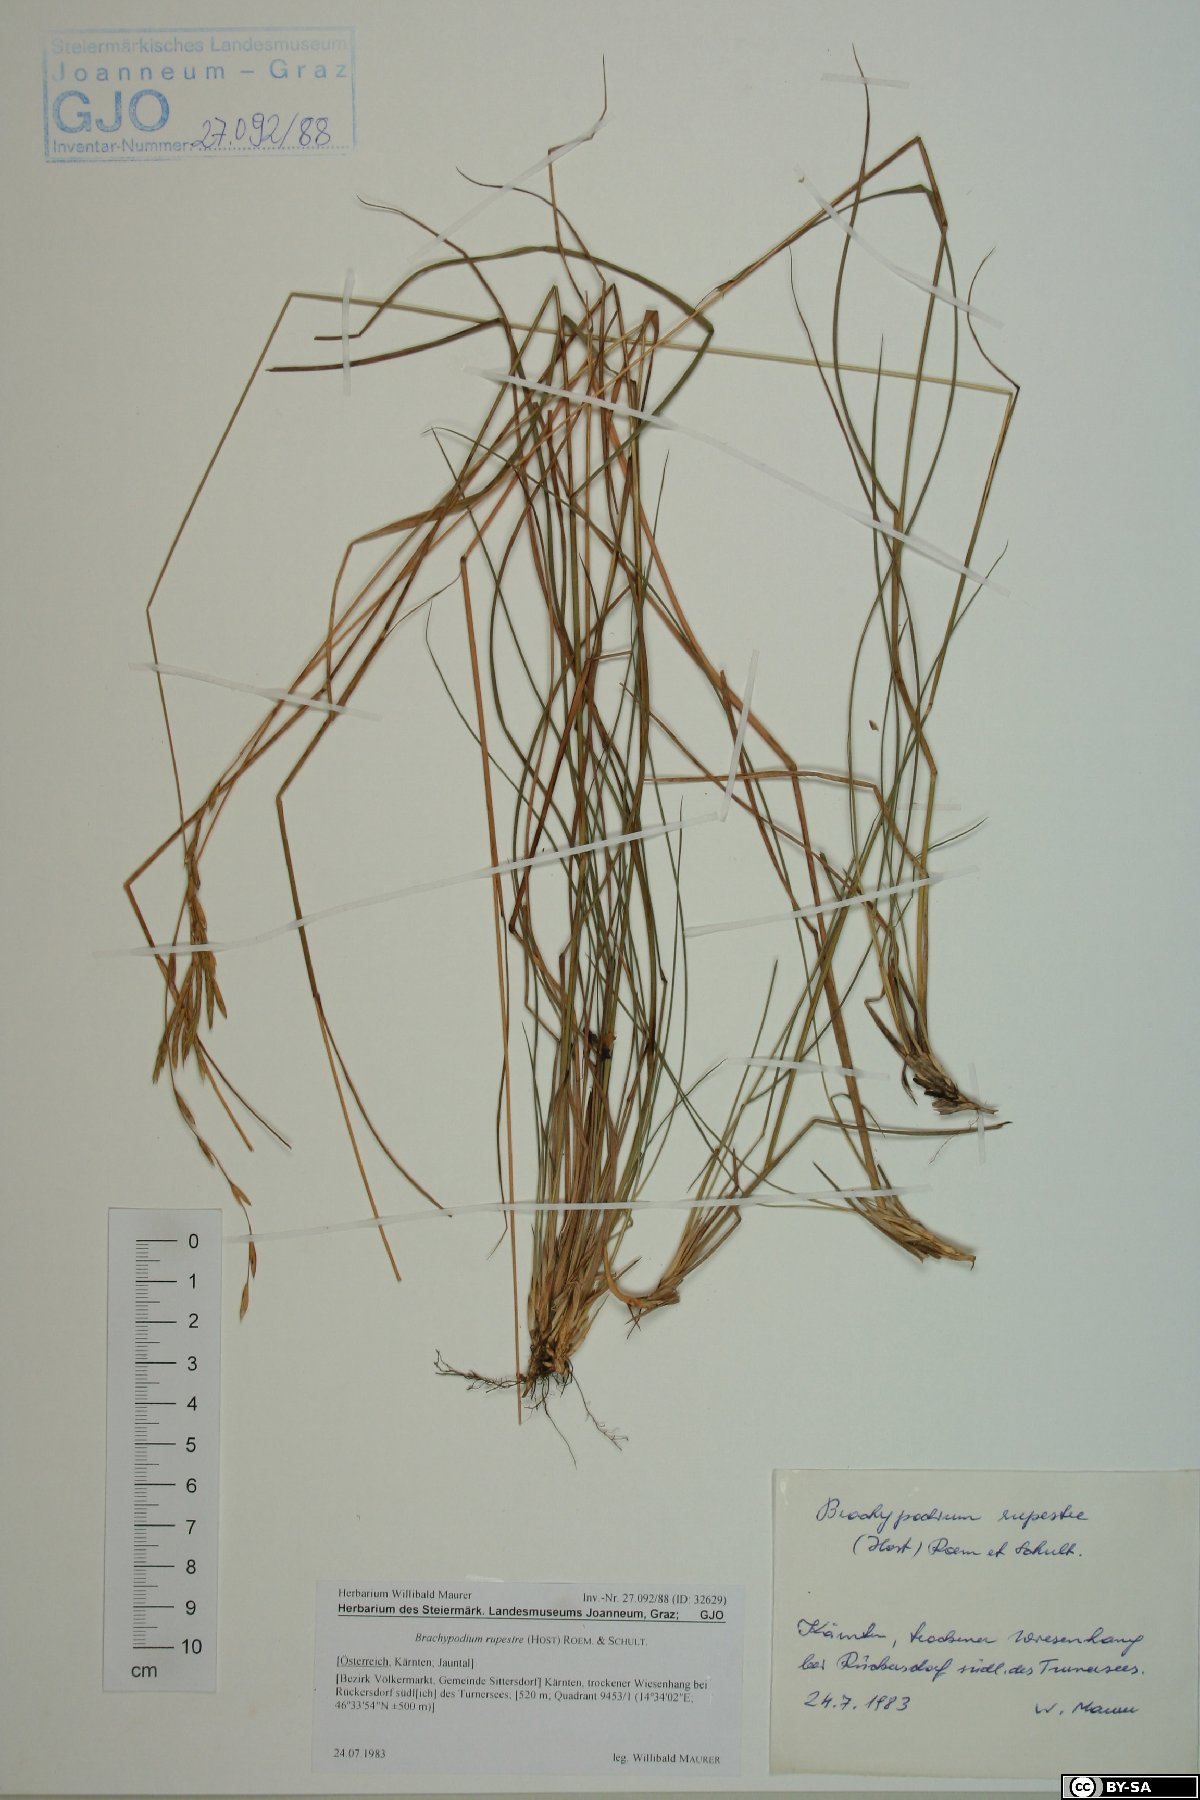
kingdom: Plantae
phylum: Tracheophyta
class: Liliopsida
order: Poales
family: Poaceae
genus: Brachypodium
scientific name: Brachypodium pinnatum
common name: Tor grass
